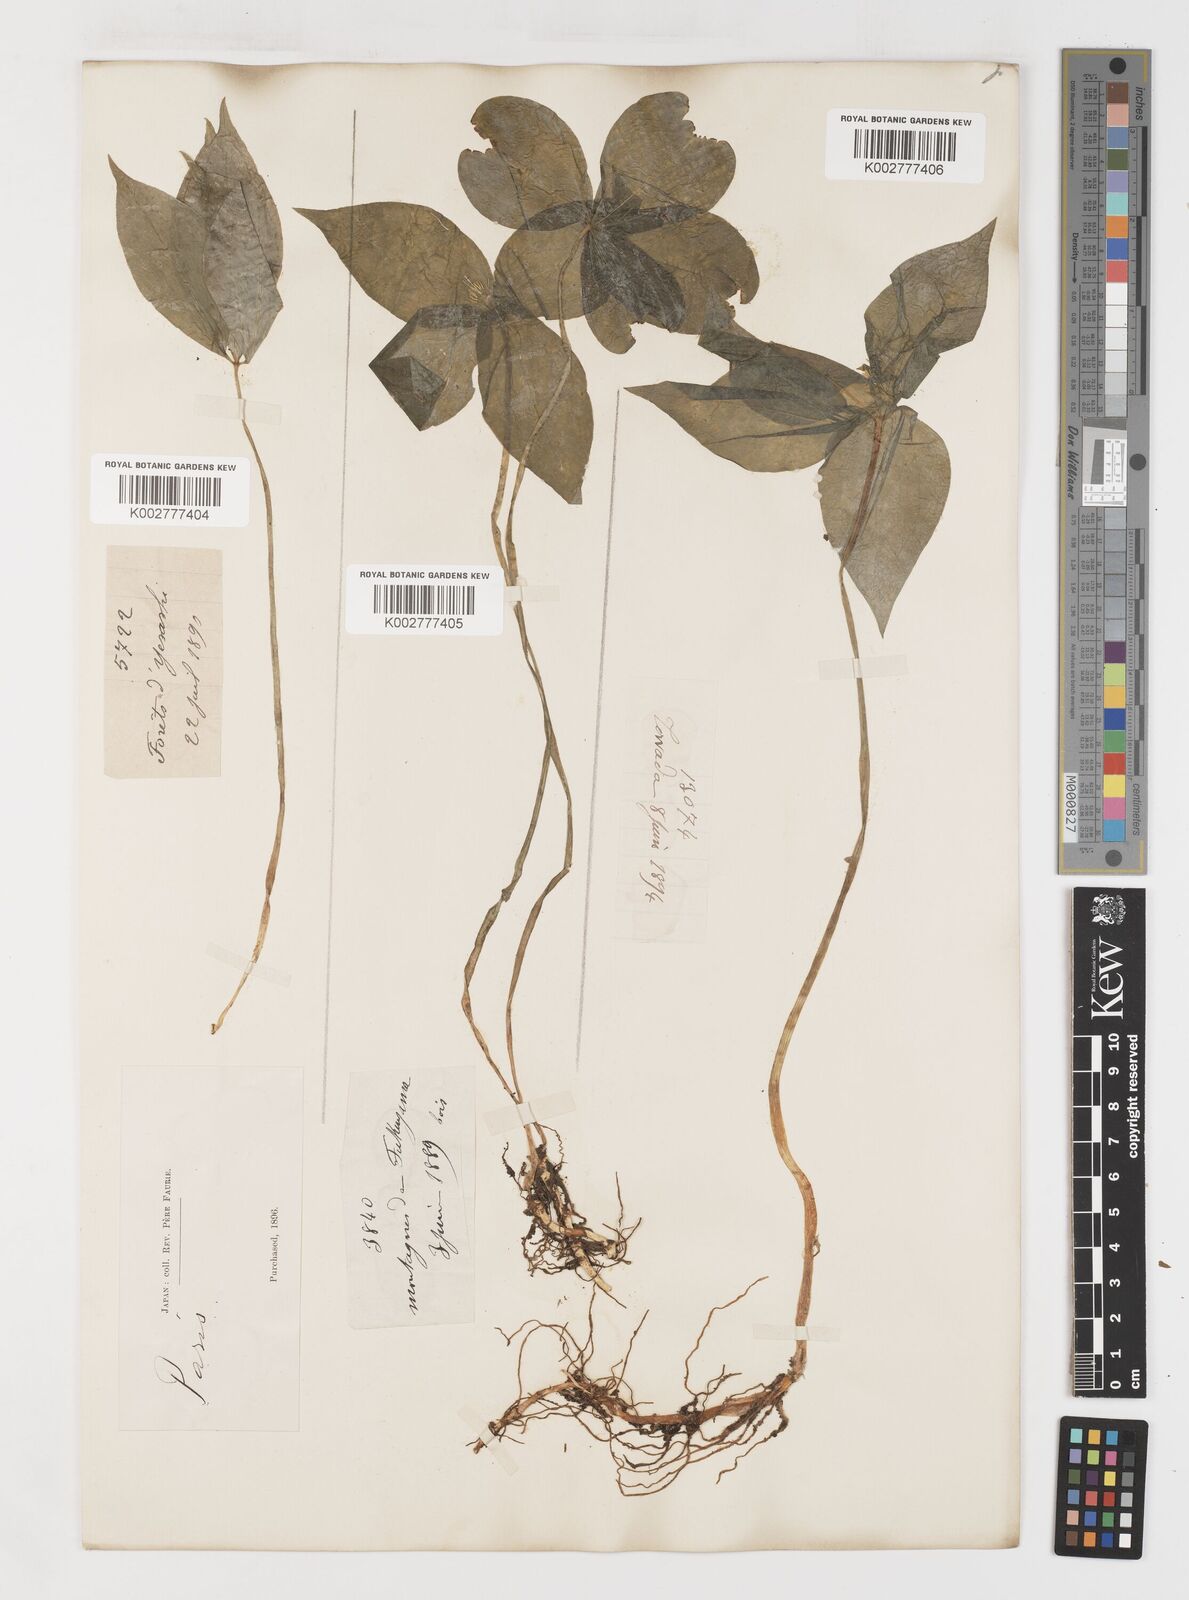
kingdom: Plantae
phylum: Tracheophyta
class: Liliopsida
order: Liliales
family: Melanthiaceae
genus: Paris
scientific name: Paris tetraphylla
